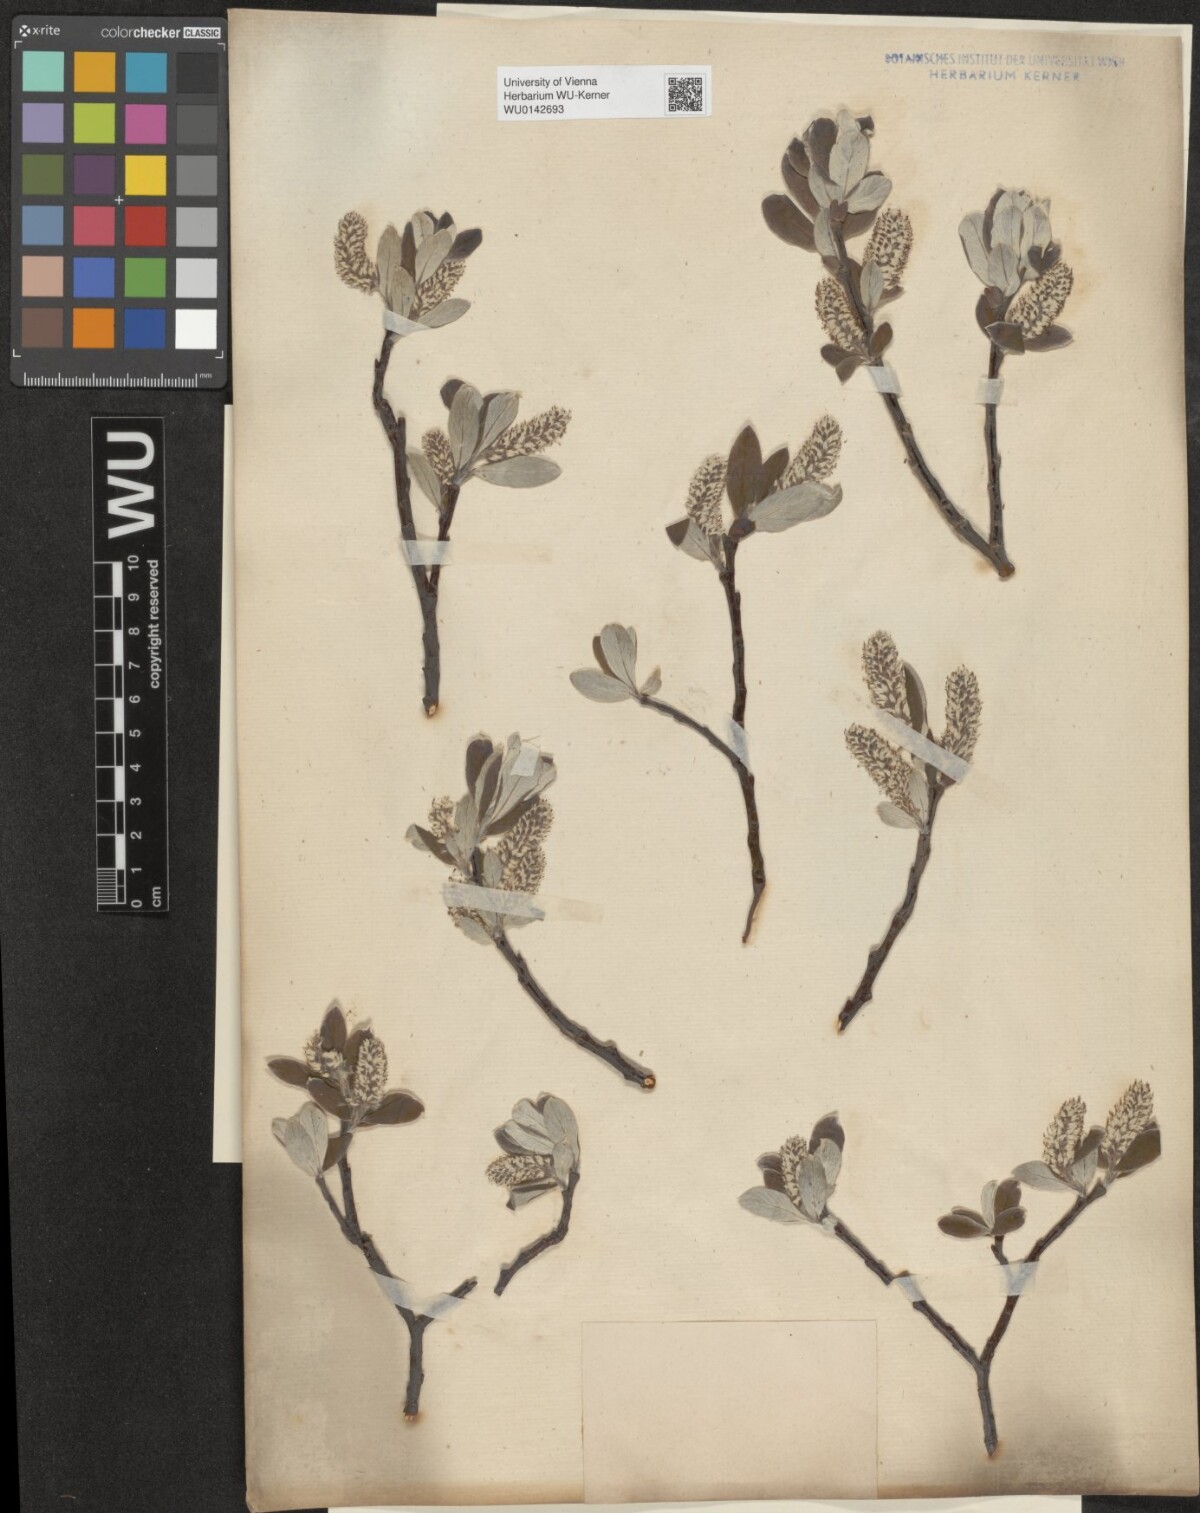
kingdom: Plantae
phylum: Tracheophyta
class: Magnoliopsida
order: Malpighiales
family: Salicaceae
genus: Salix
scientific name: Salix helvetica
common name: Swiss willow
